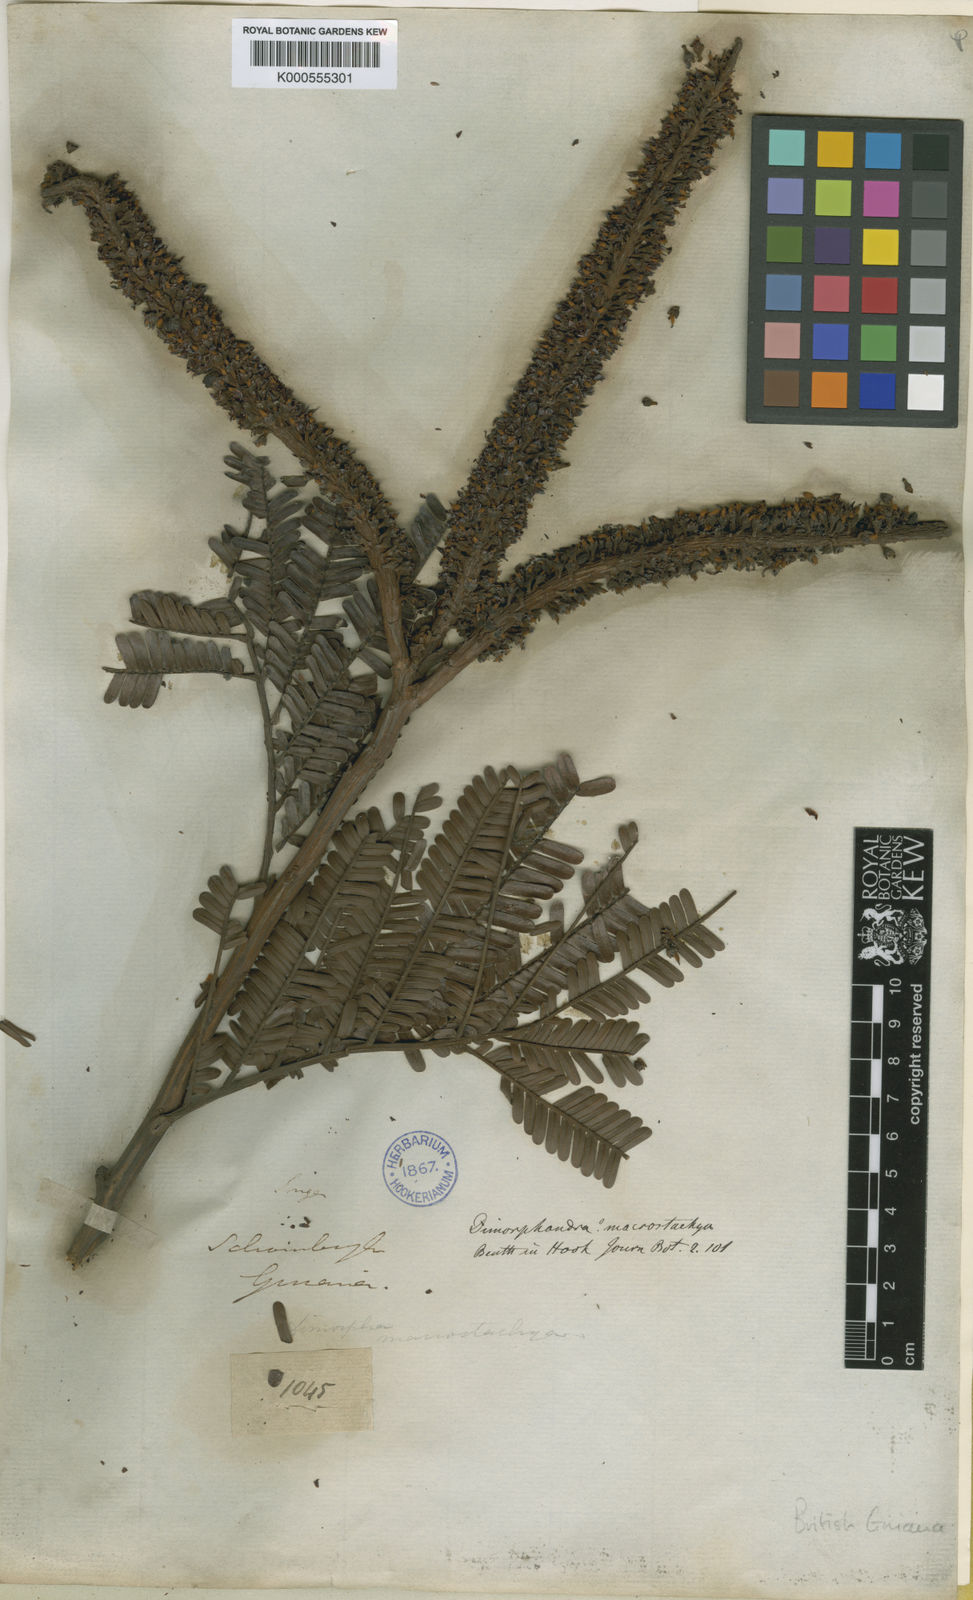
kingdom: Plantae
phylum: Tracheophyta
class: Magnoliopsida
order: Fabales
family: Fabaceae
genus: Dimorphandra
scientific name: Dimorphandra macrostachya
